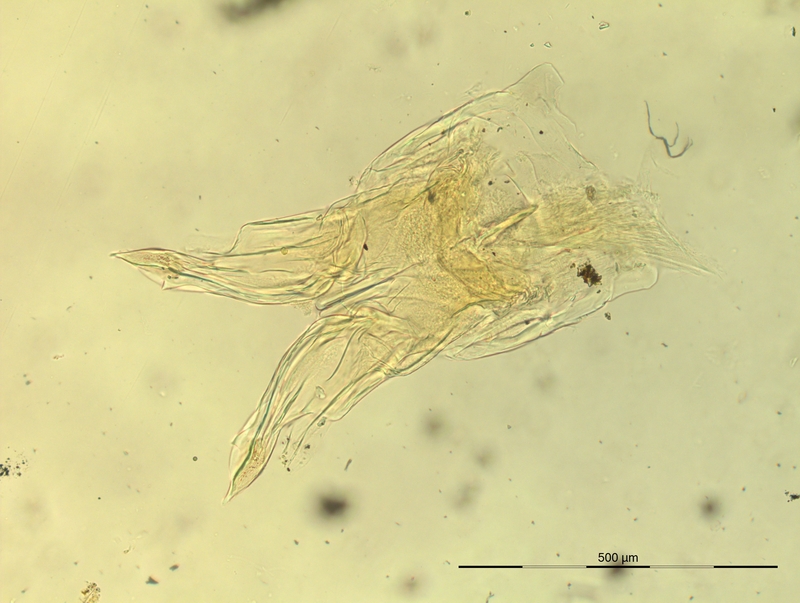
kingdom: Animalia
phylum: Arthropoda
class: Diplopoda
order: Chordeumatida
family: Opisthocheiridae
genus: Marquetia
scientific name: Marquetia pyrenaicum
